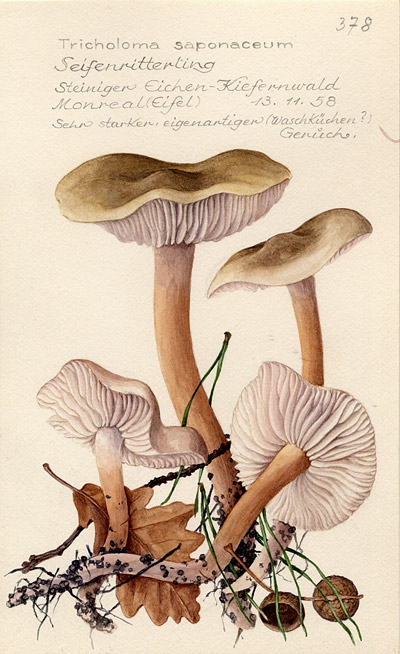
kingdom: Fungi
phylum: Basidiomycota
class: Agaricomycetes
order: Agaricales
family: Tricholomataceae
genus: Tricholoma
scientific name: Tricholoma saponaceum
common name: Soapy trich
